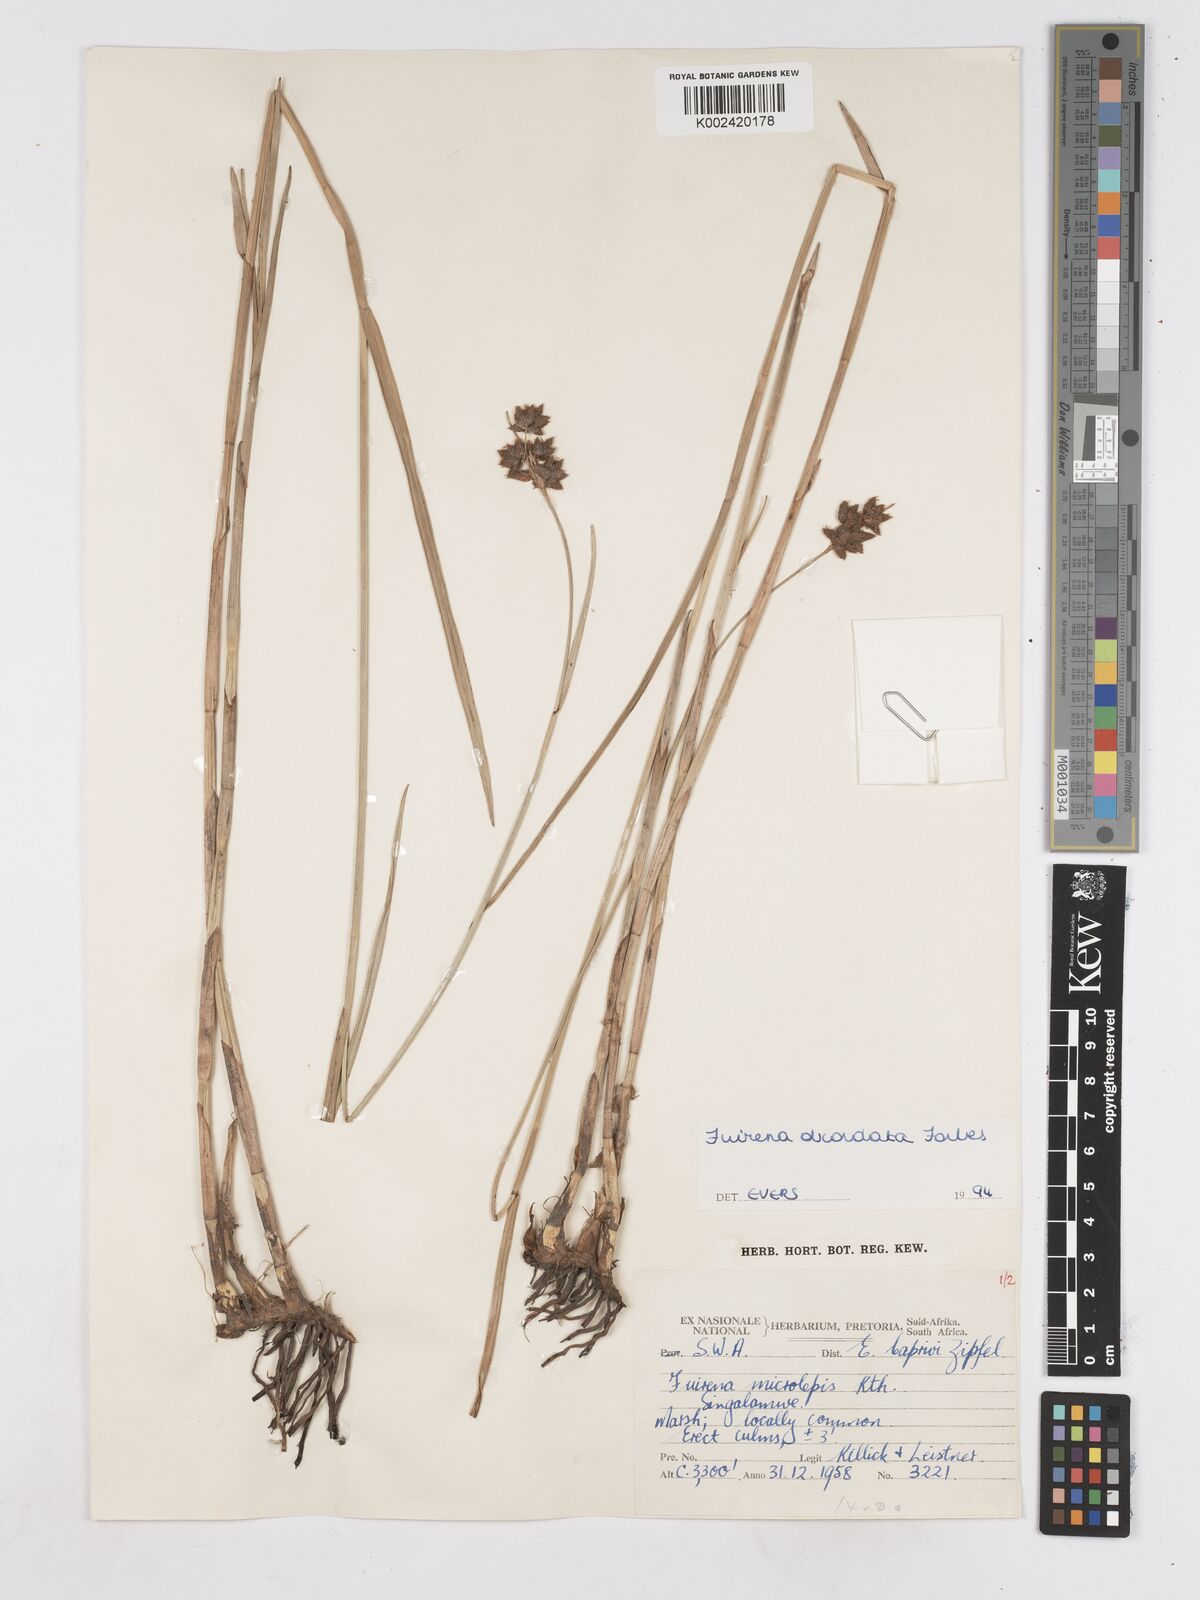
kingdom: Plantae
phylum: Tracheophyta
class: Liliopsida
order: Poales
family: Cyperaceae
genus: Fuirena
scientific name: Fuirena obcordata
